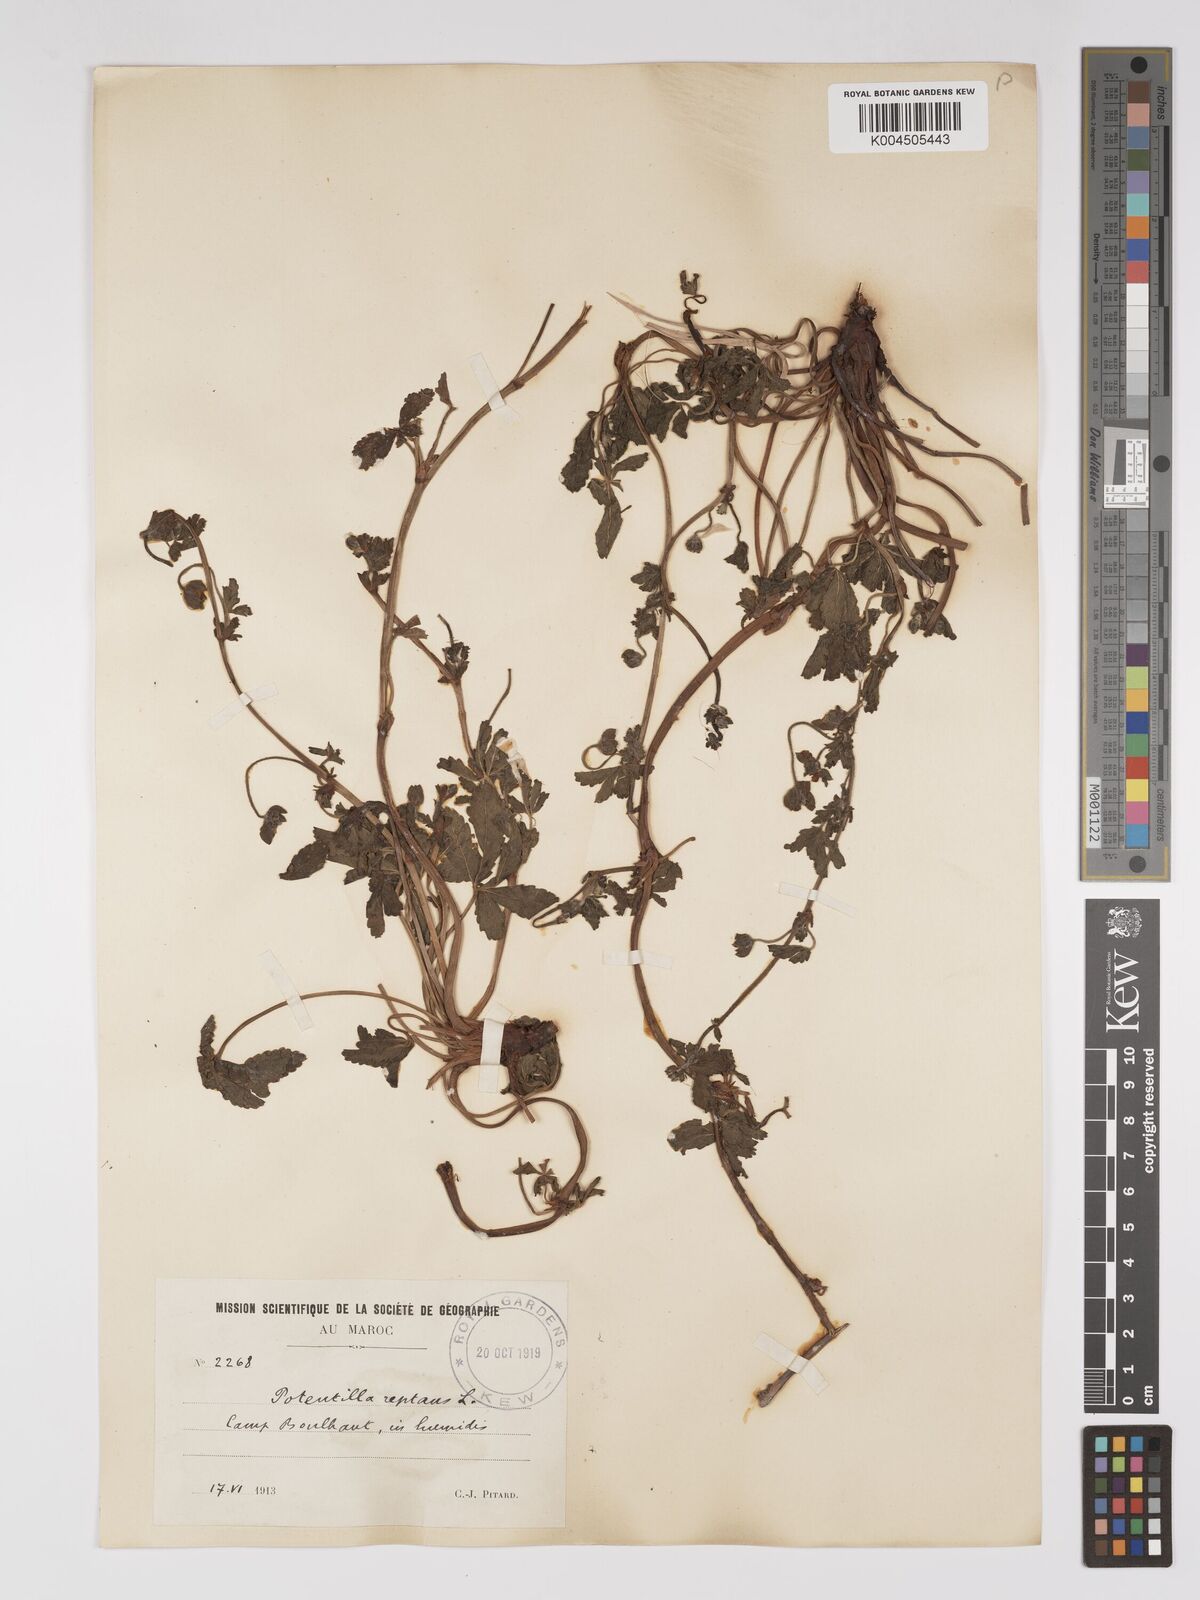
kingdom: Plantae
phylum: Tracheophyta
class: Magnoliopsida
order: Rosales
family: Rosaceae
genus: Potentilla
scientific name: Potentilla reptans
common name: Creeping cinquefoil
